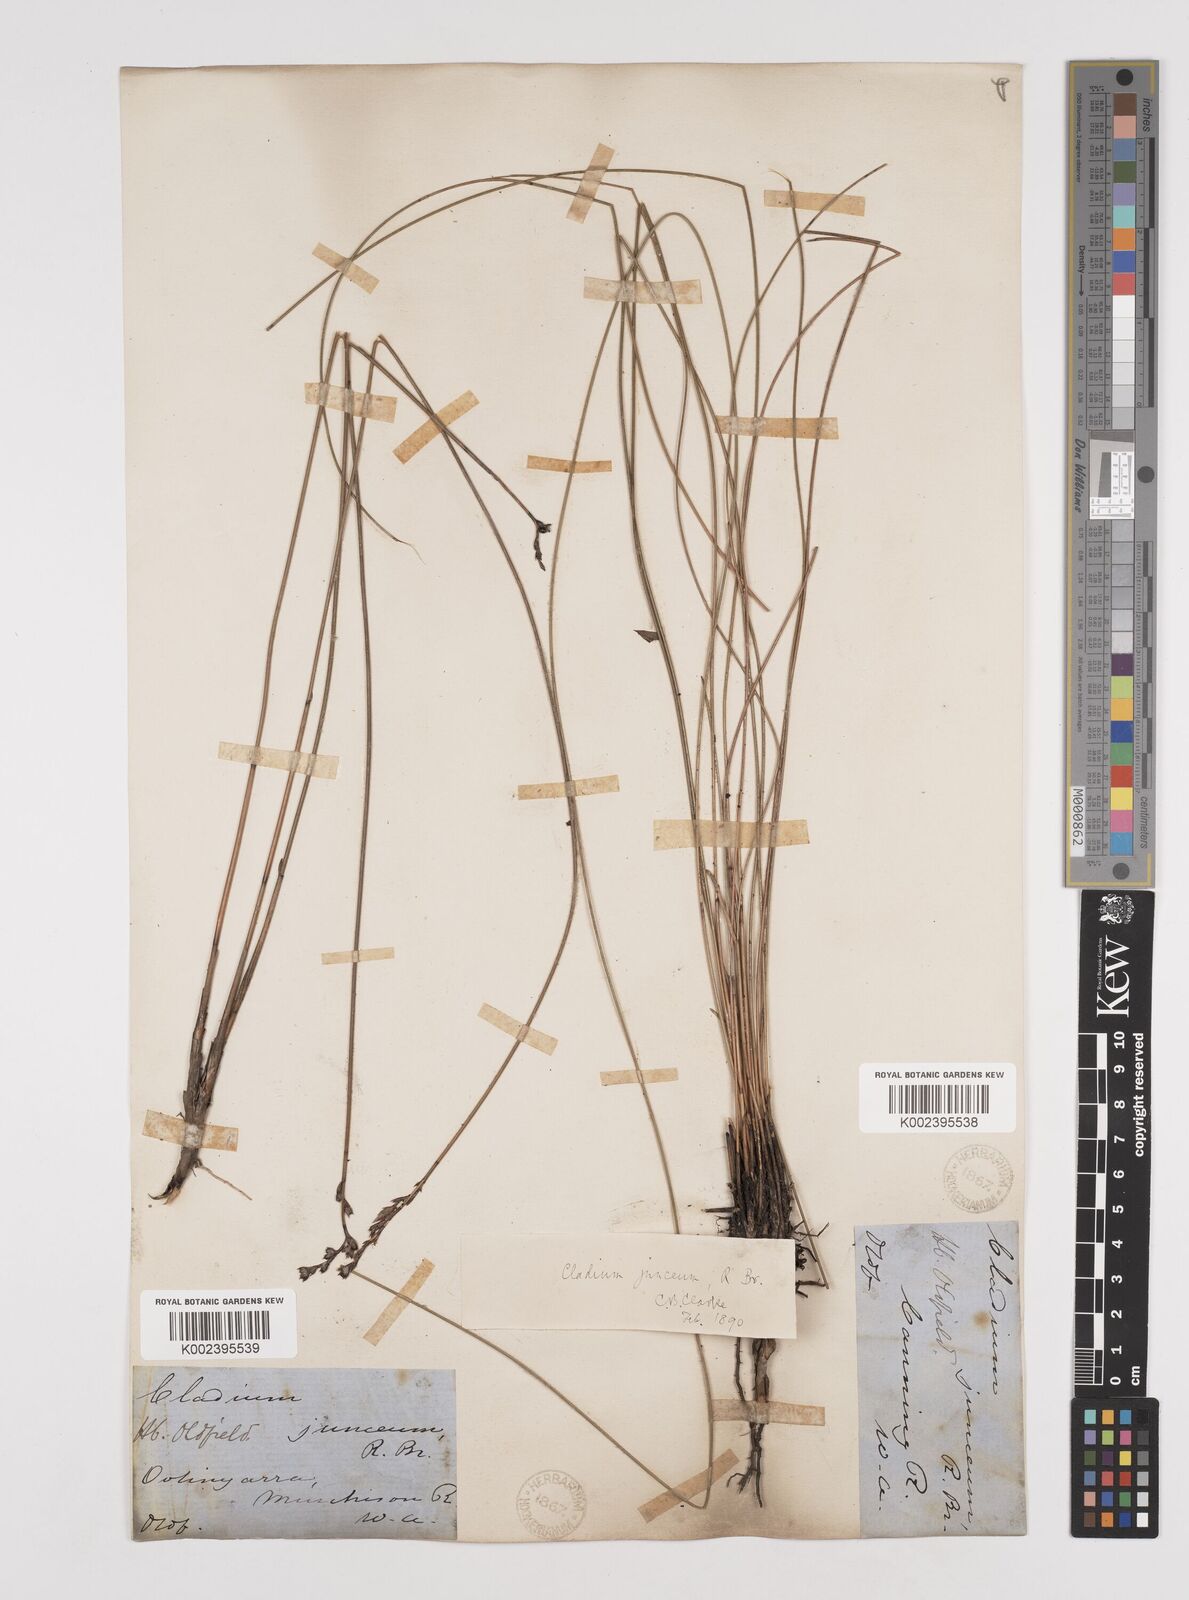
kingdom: Plantae
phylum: Tracheophyta
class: Liliopsida
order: Poales
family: Cyperaceae
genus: Machaerina
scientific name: Machaerina juncea
